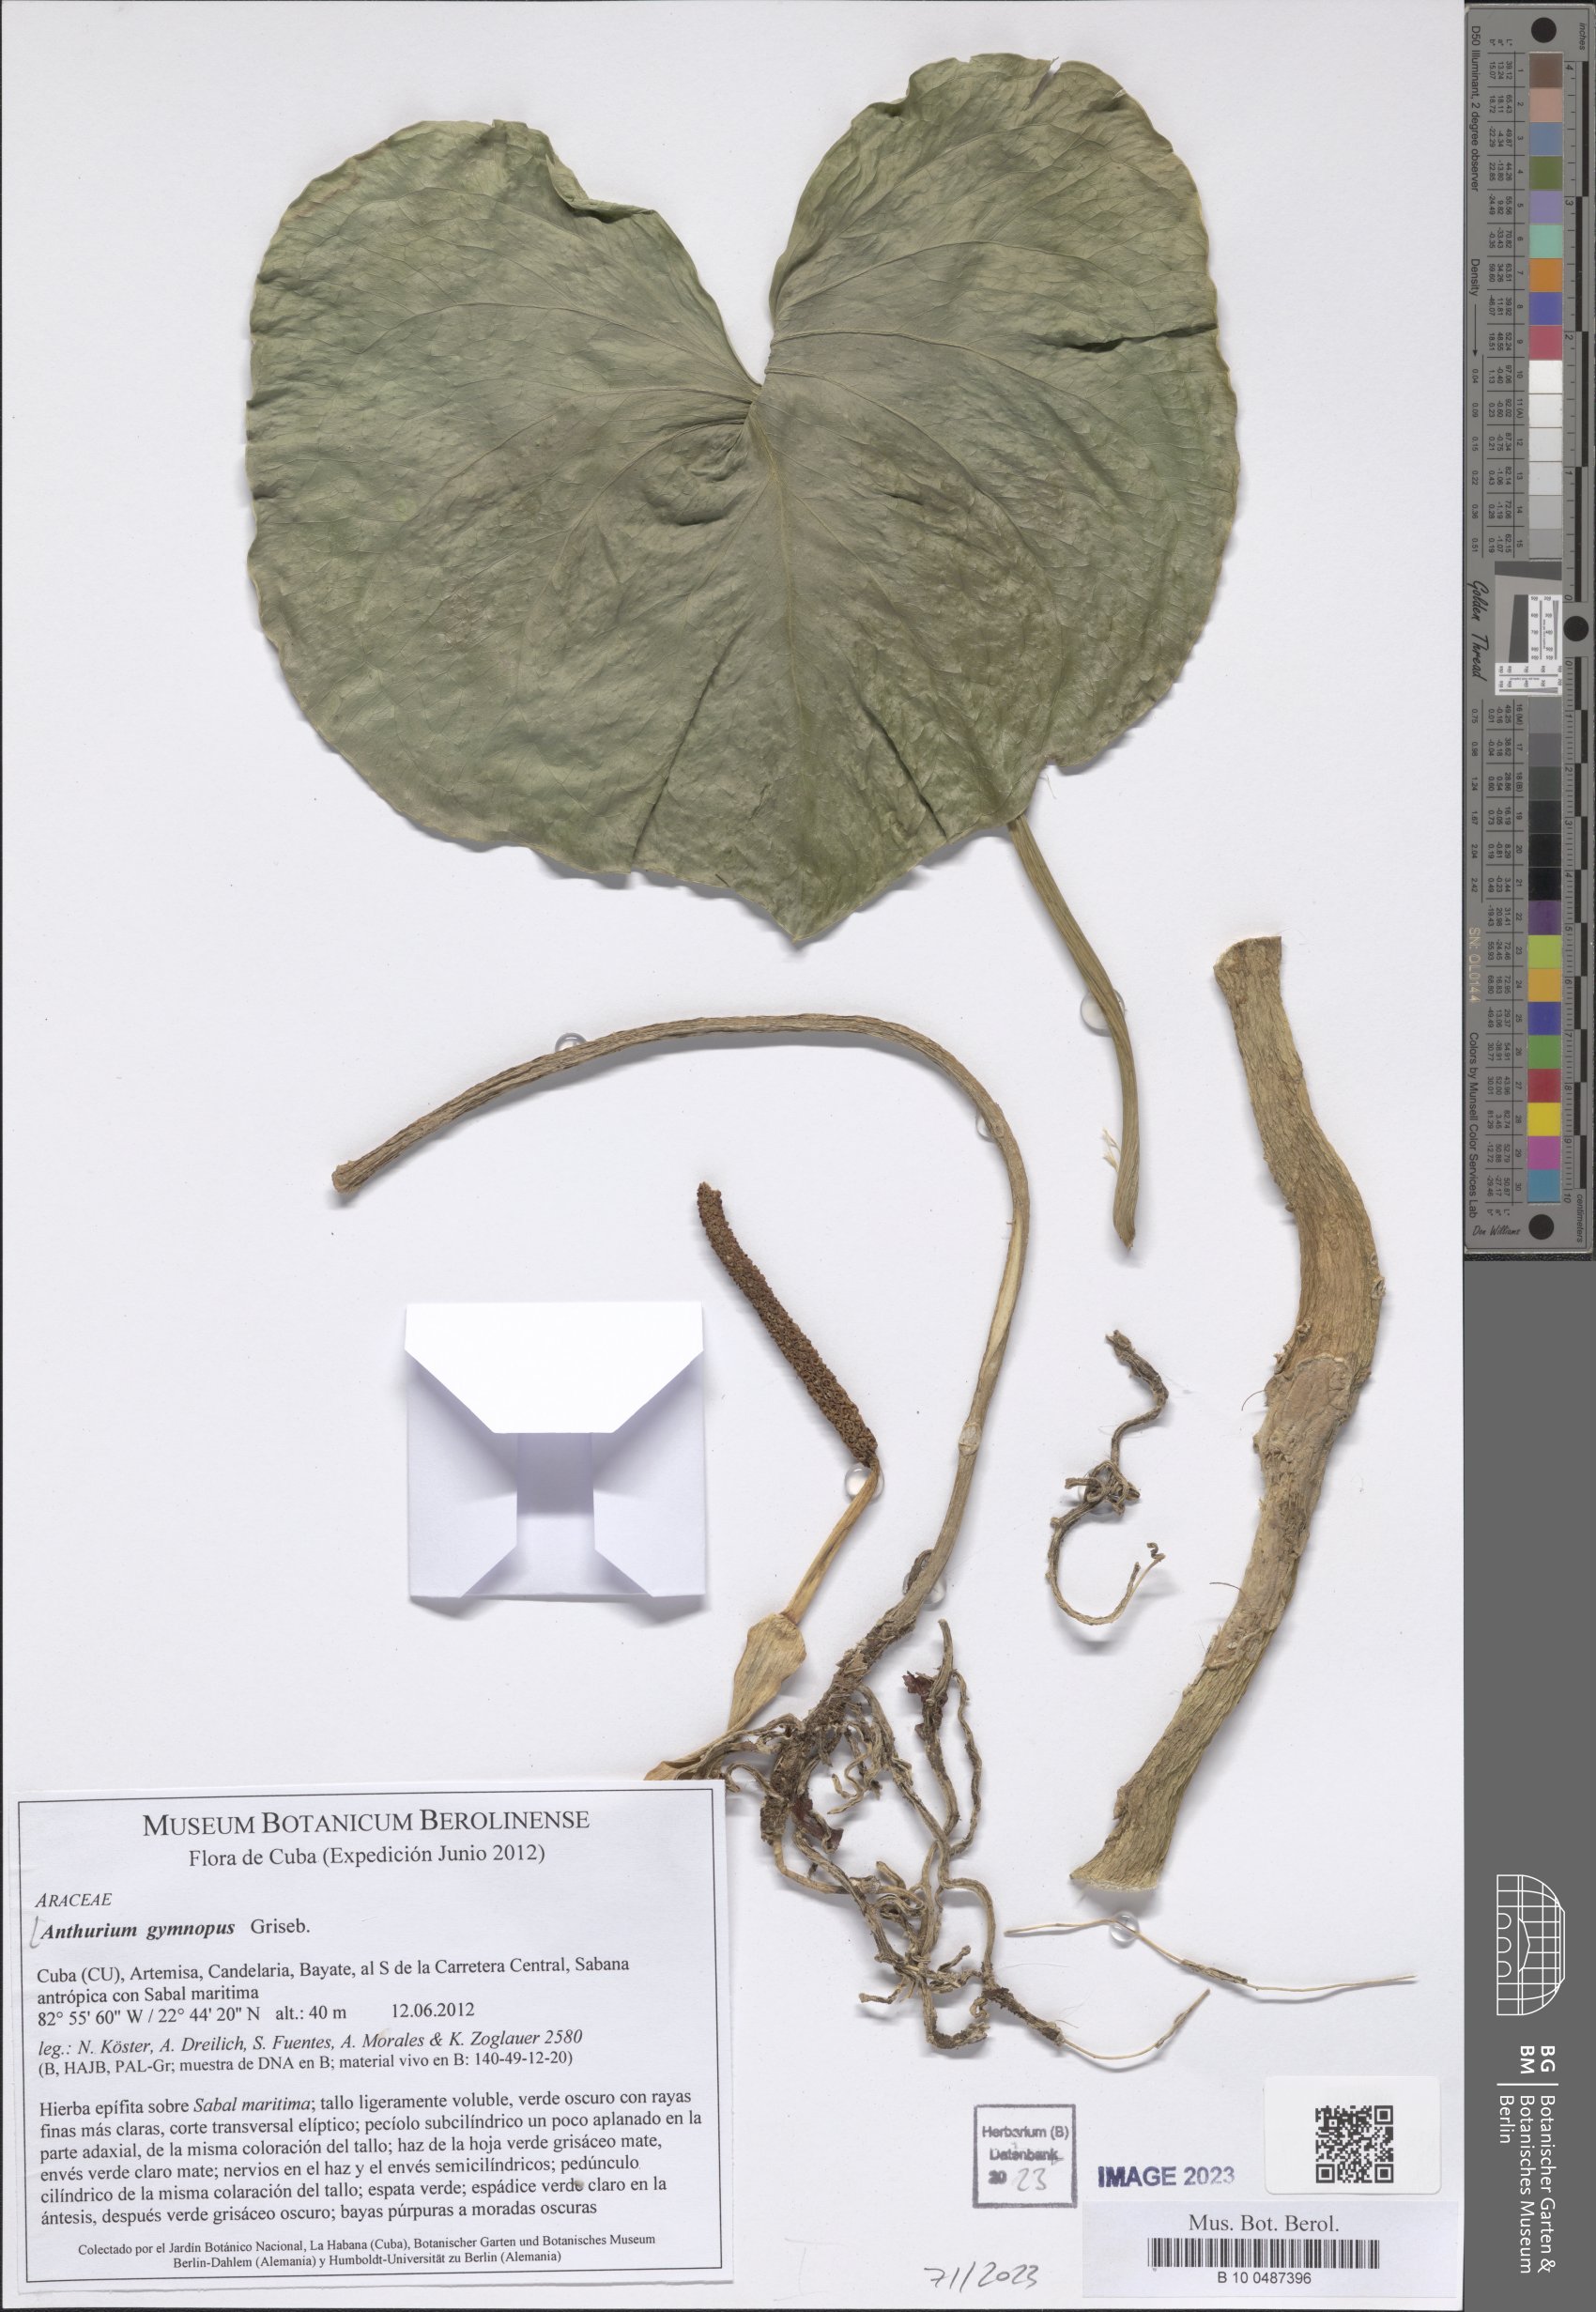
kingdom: Plantae
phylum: Tracheophyta
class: Liliopsida
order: Alismatales
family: Araceae
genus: Anthurium
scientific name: Anthurium gymnopus
